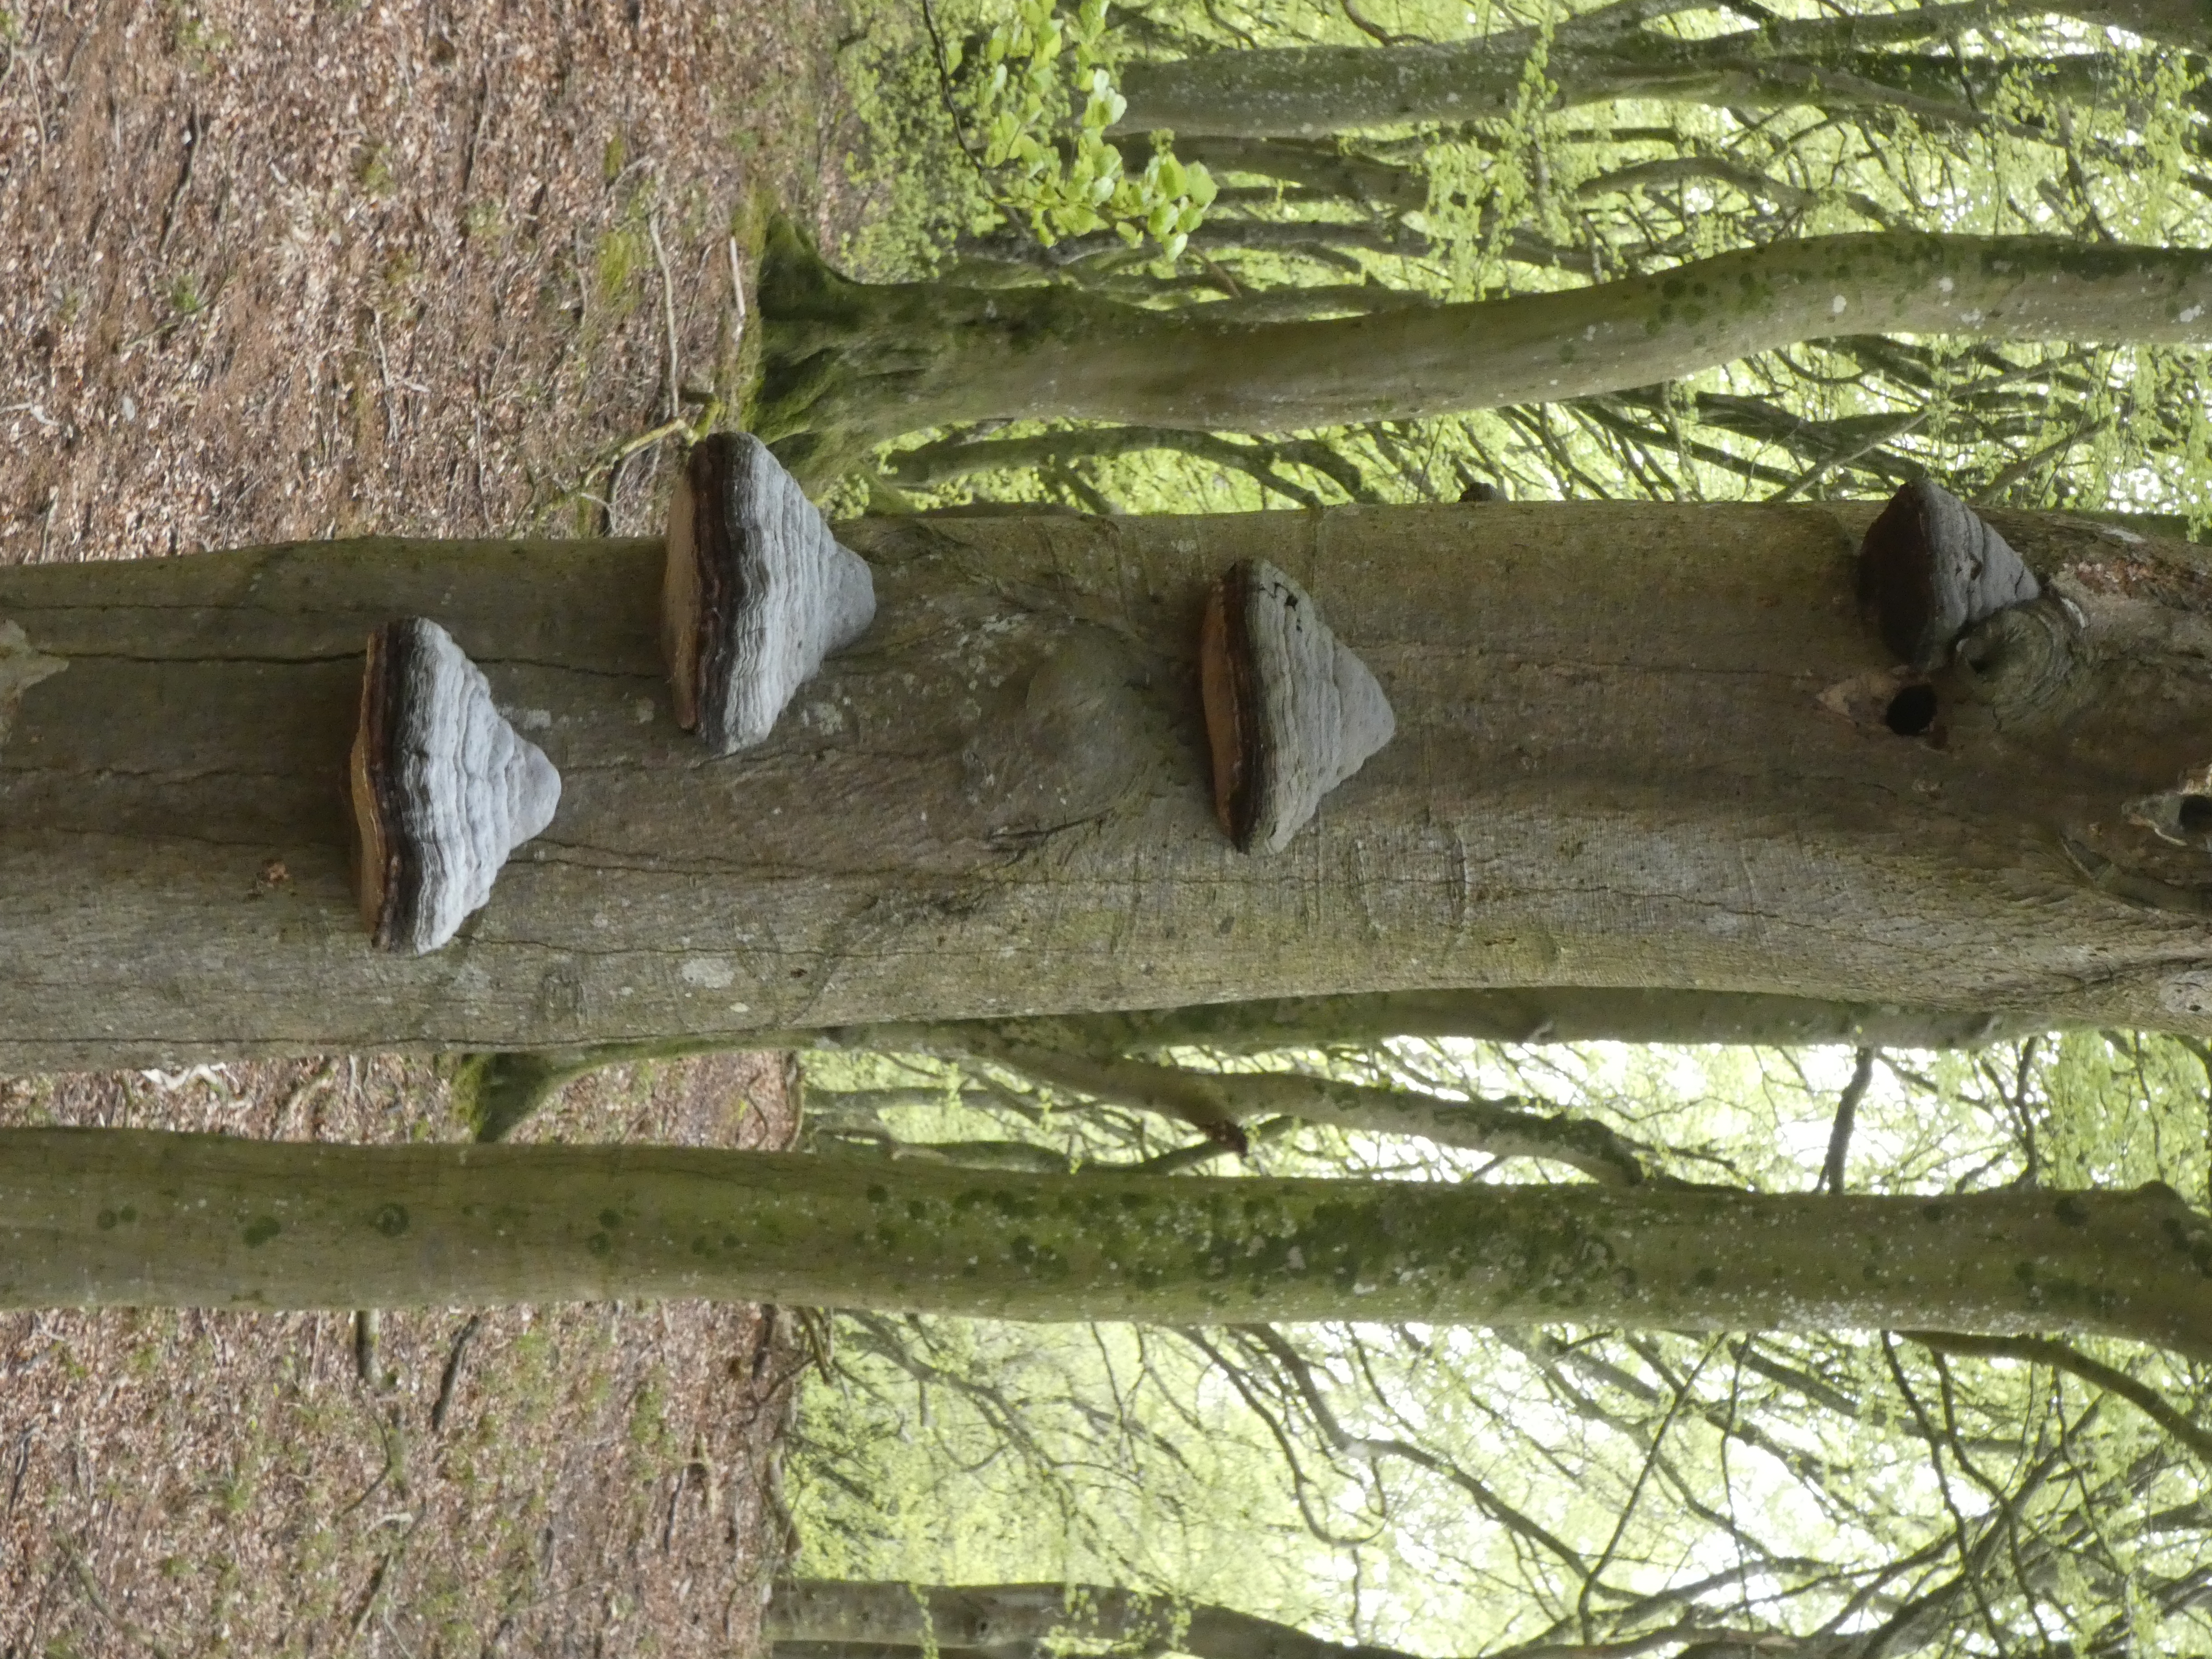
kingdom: Fungi
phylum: Basidiomycota
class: Agaricomycetes
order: Polyporales
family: Polyporaceae
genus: Fomes
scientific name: Fomes fomentarius
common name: Tøndersvamp
